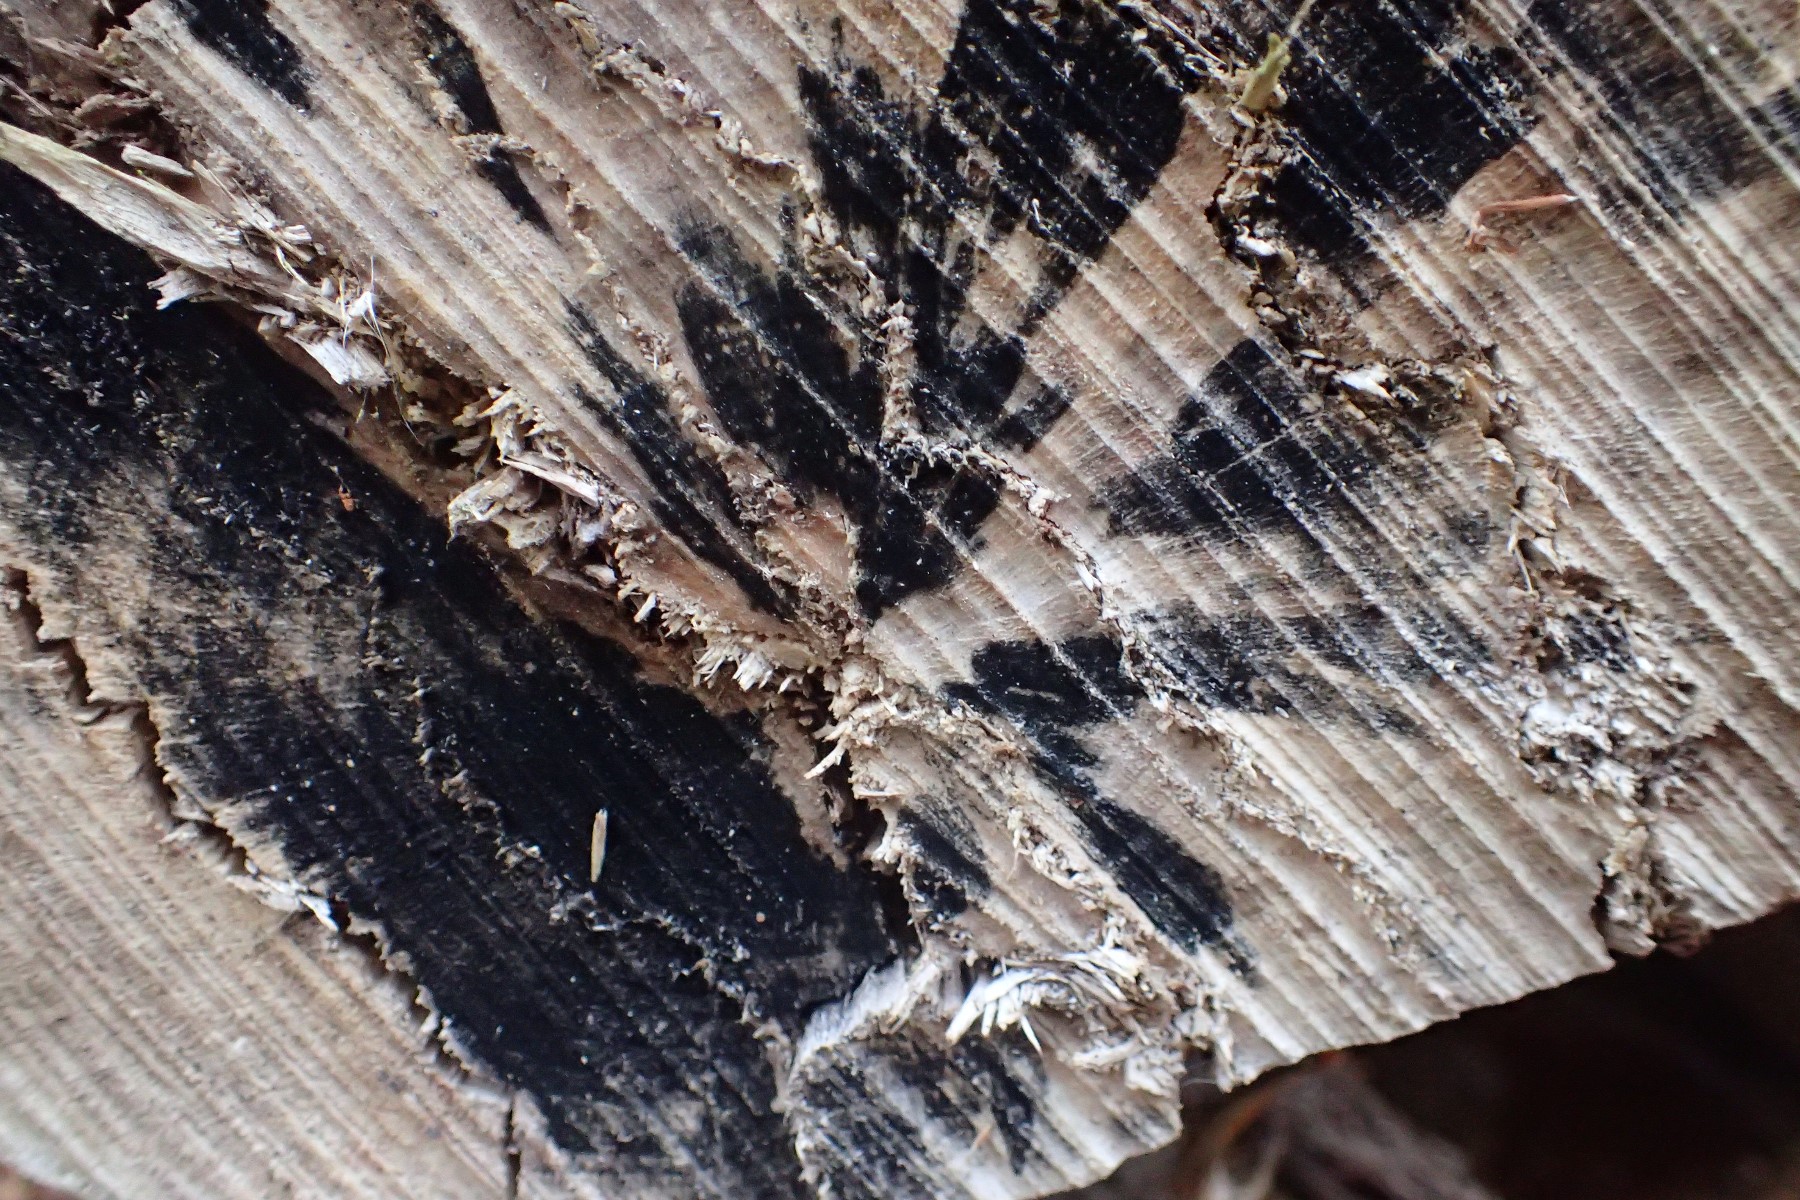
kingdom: Fungi
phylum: Ascomycota
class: Leotiomycetes
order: Helotiales
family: Helotiaceae
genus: Bispora
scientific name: Bispora pallescens
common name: måtte-snitskive
